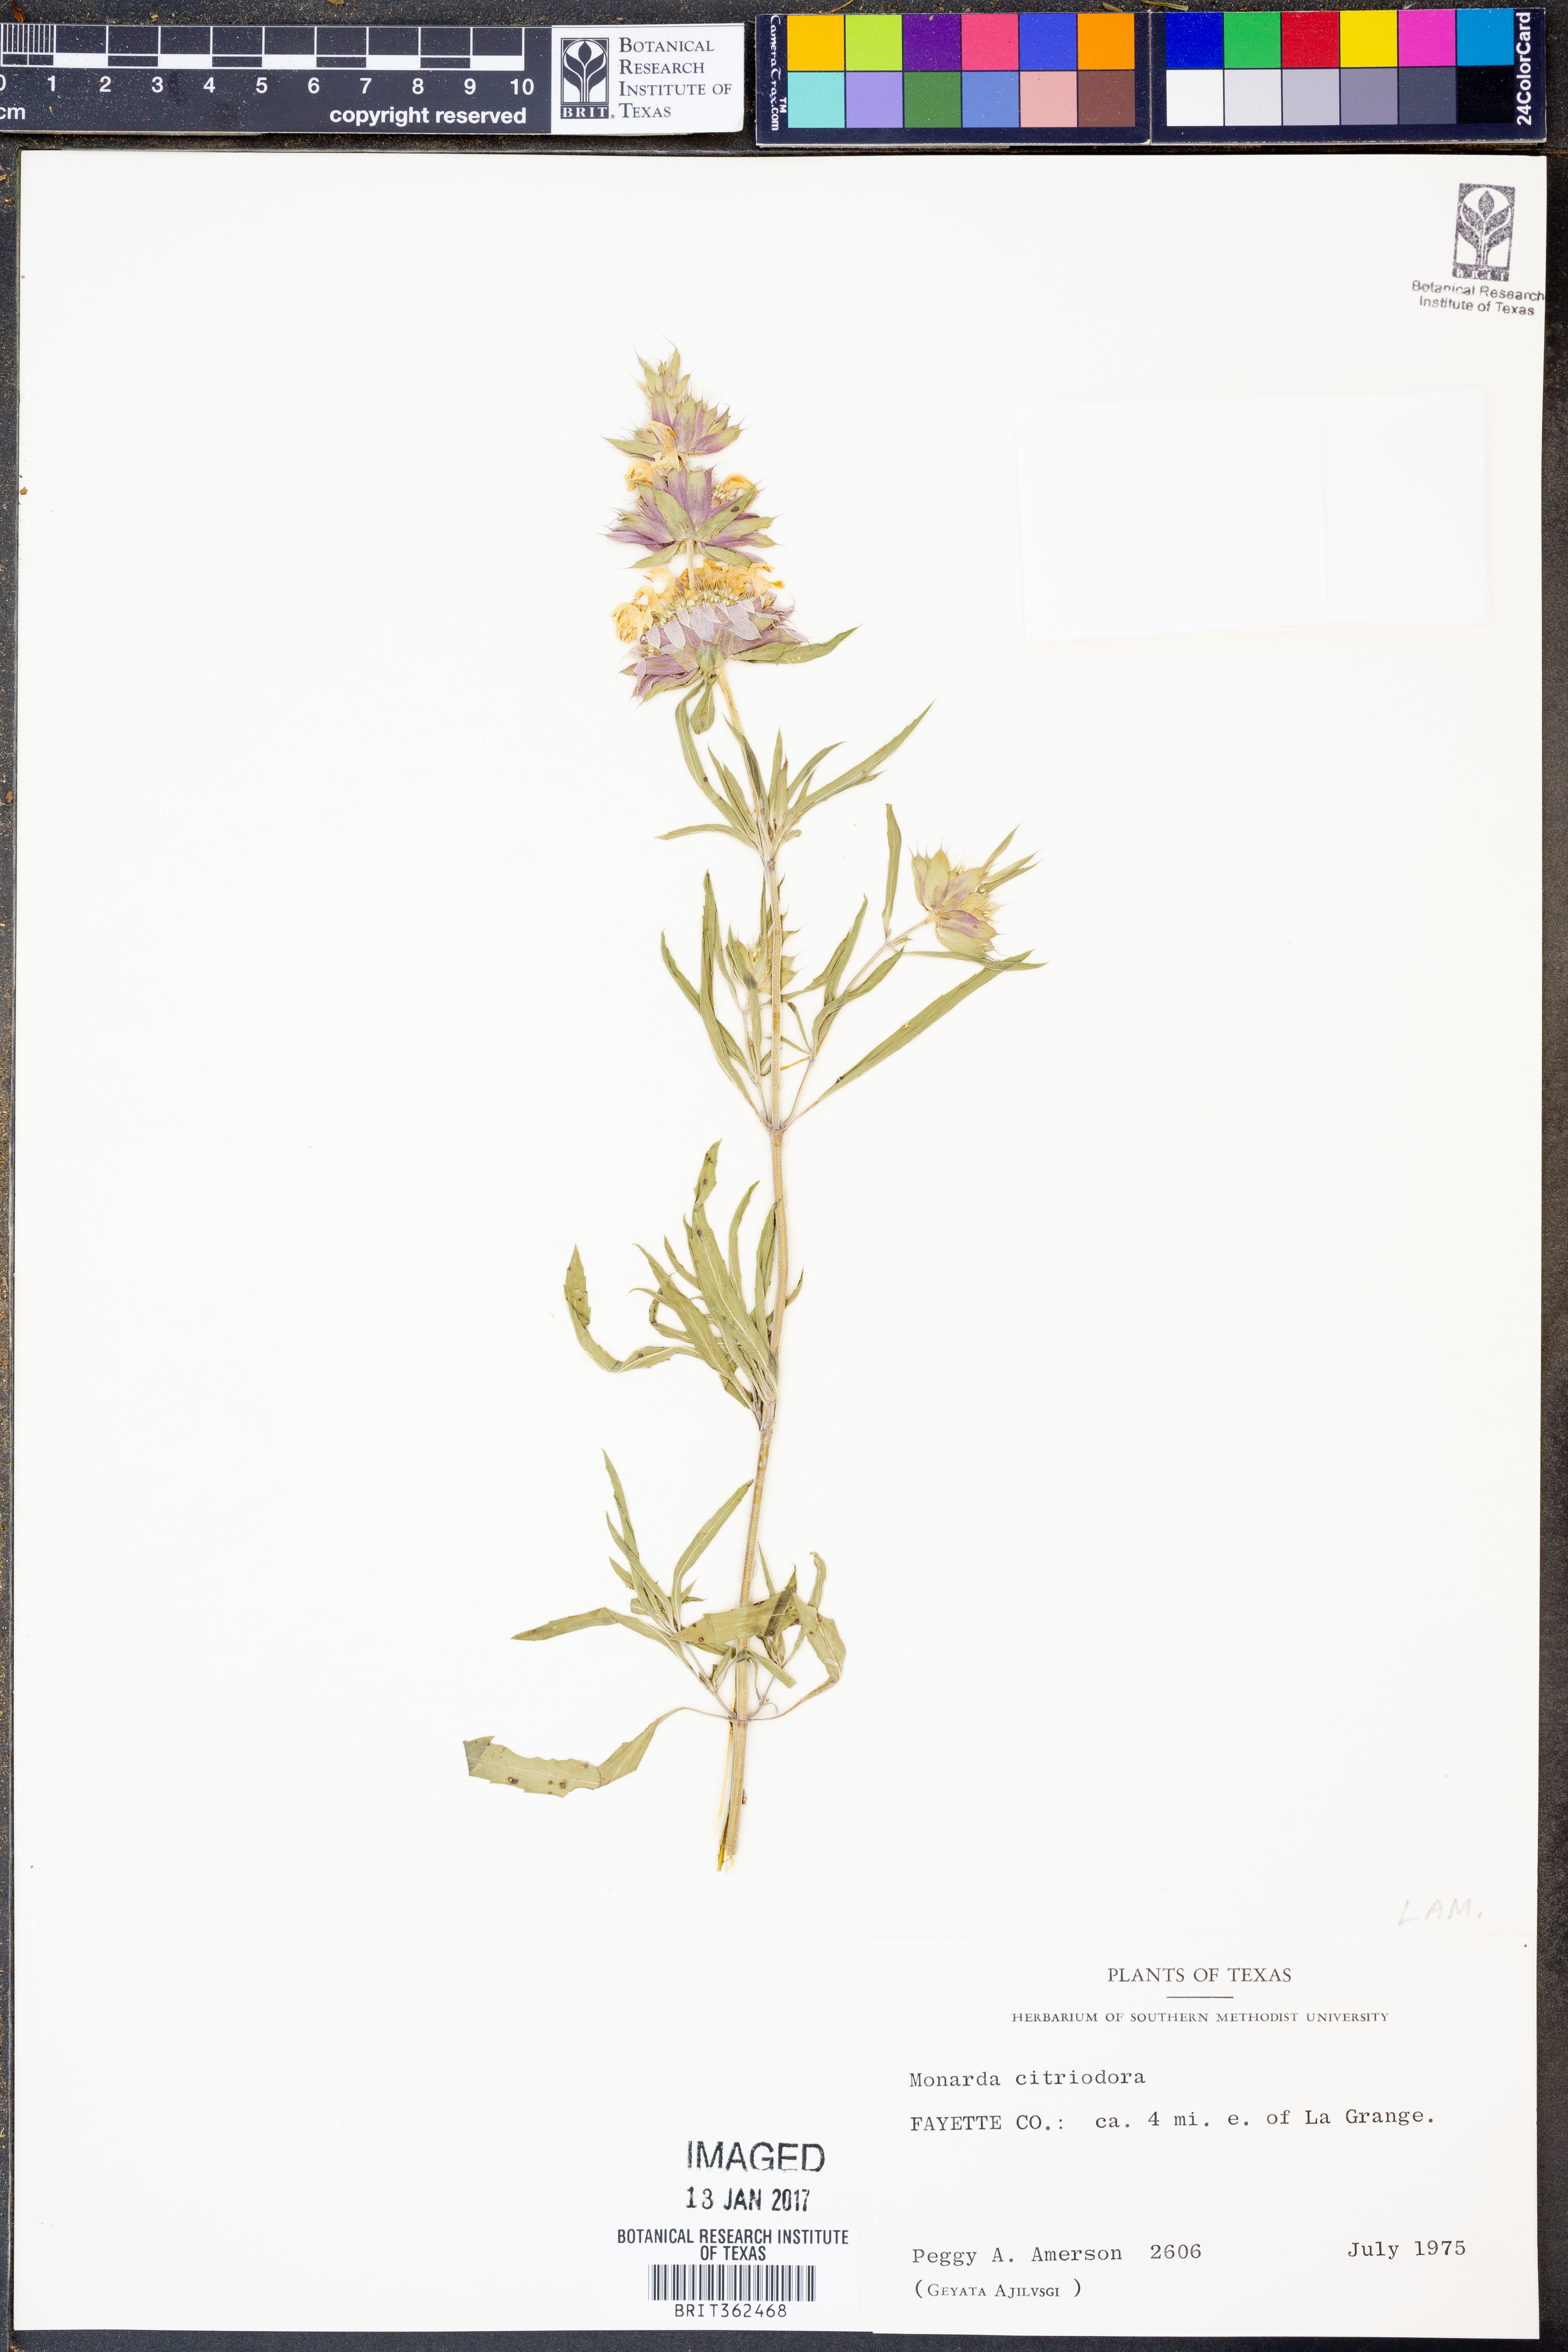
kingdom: Plantae
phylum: Tracheophyta
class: Magnoliopsida
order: Lamiales
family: Lamiaceae
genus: Monarda
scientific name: Monarda citriodora
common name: Lemon beebalm
